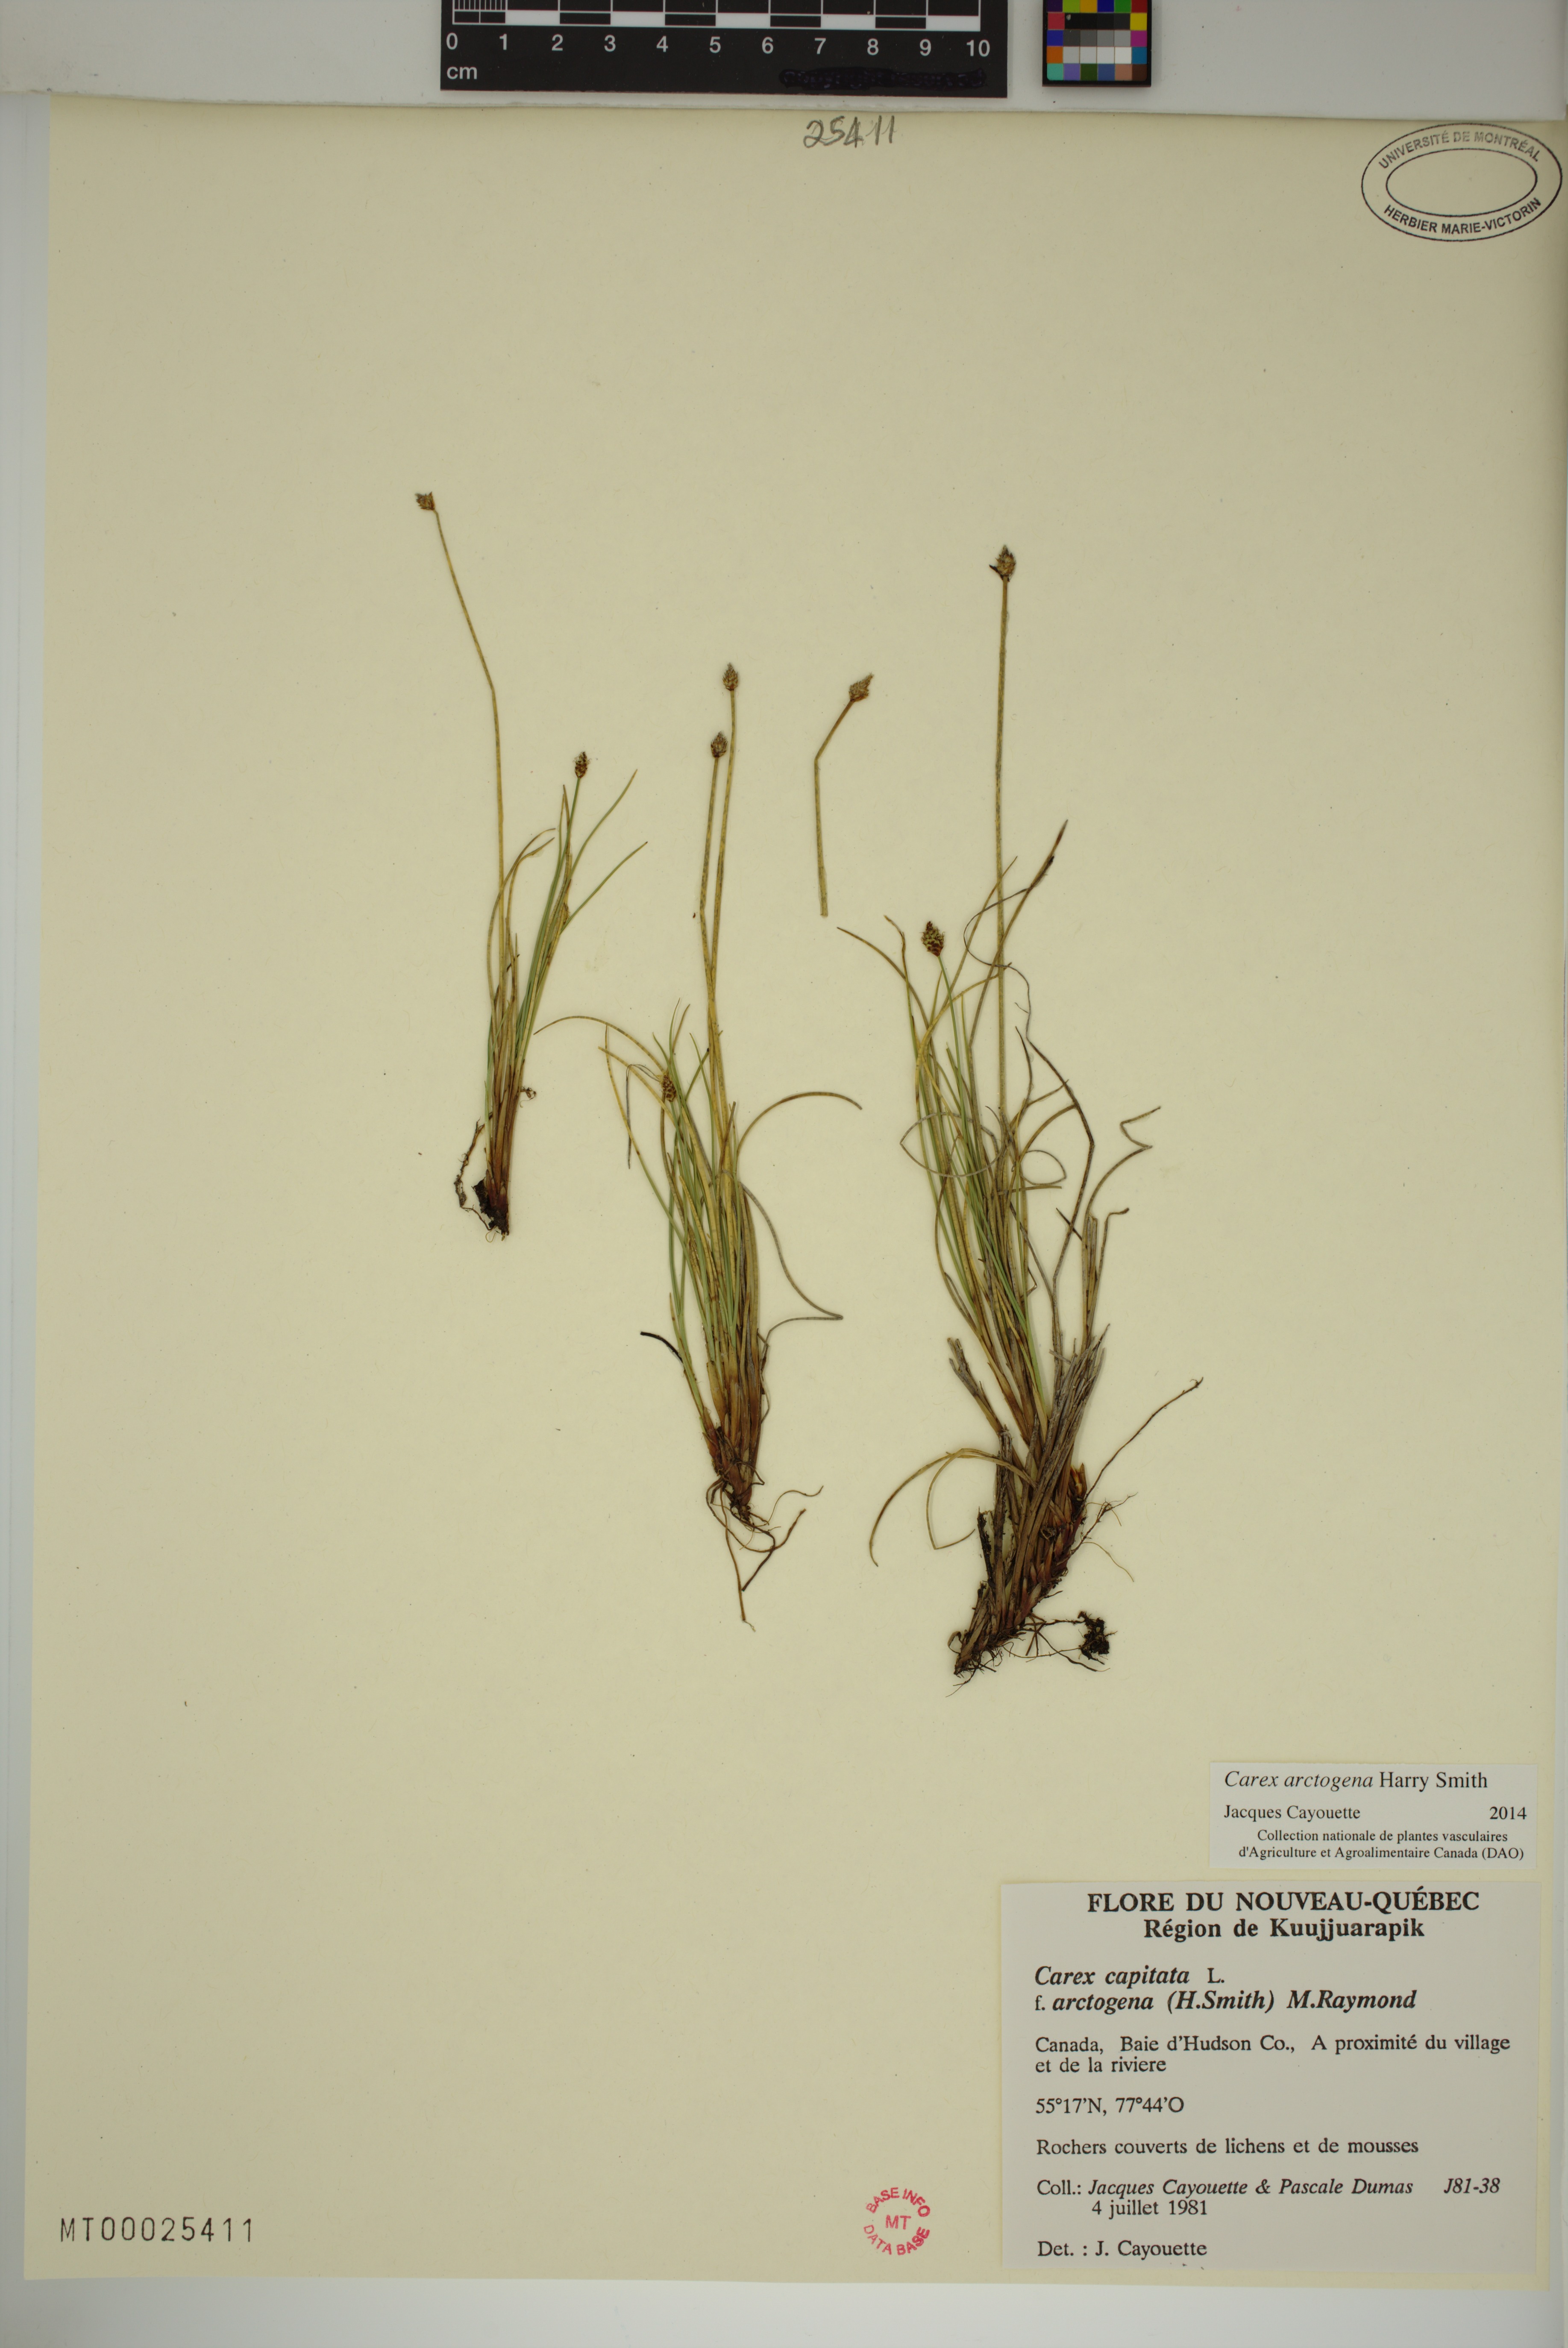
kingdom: Plantae
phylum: Tracheophyta
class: Liliopsida
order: Poales
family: Cyperaceae
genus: Carex
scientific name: Carex arctogena
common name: Black sedge
